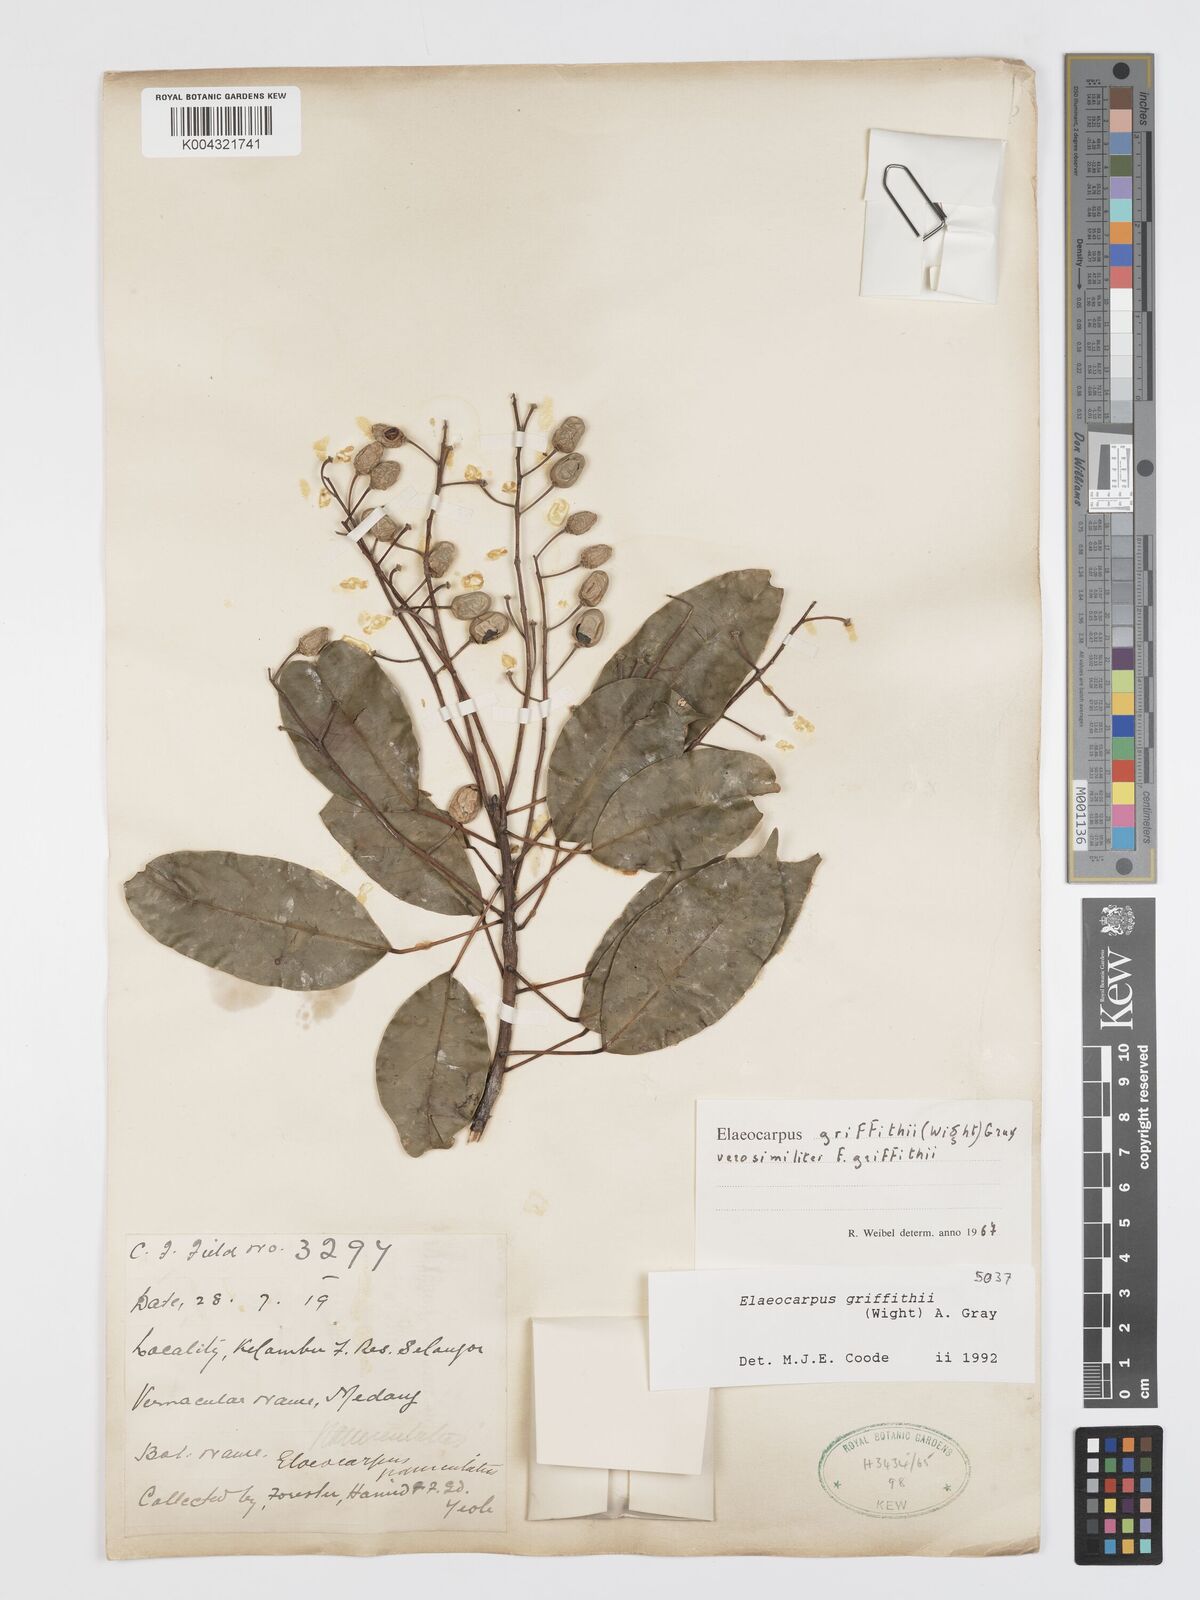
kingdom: Plantae
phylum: Tracheophyta
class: Magnoliopsida
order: Oxalidales
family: Elaeocarpaceae
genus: Elaeocarpus
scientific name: Elaeocarpus griffithii
